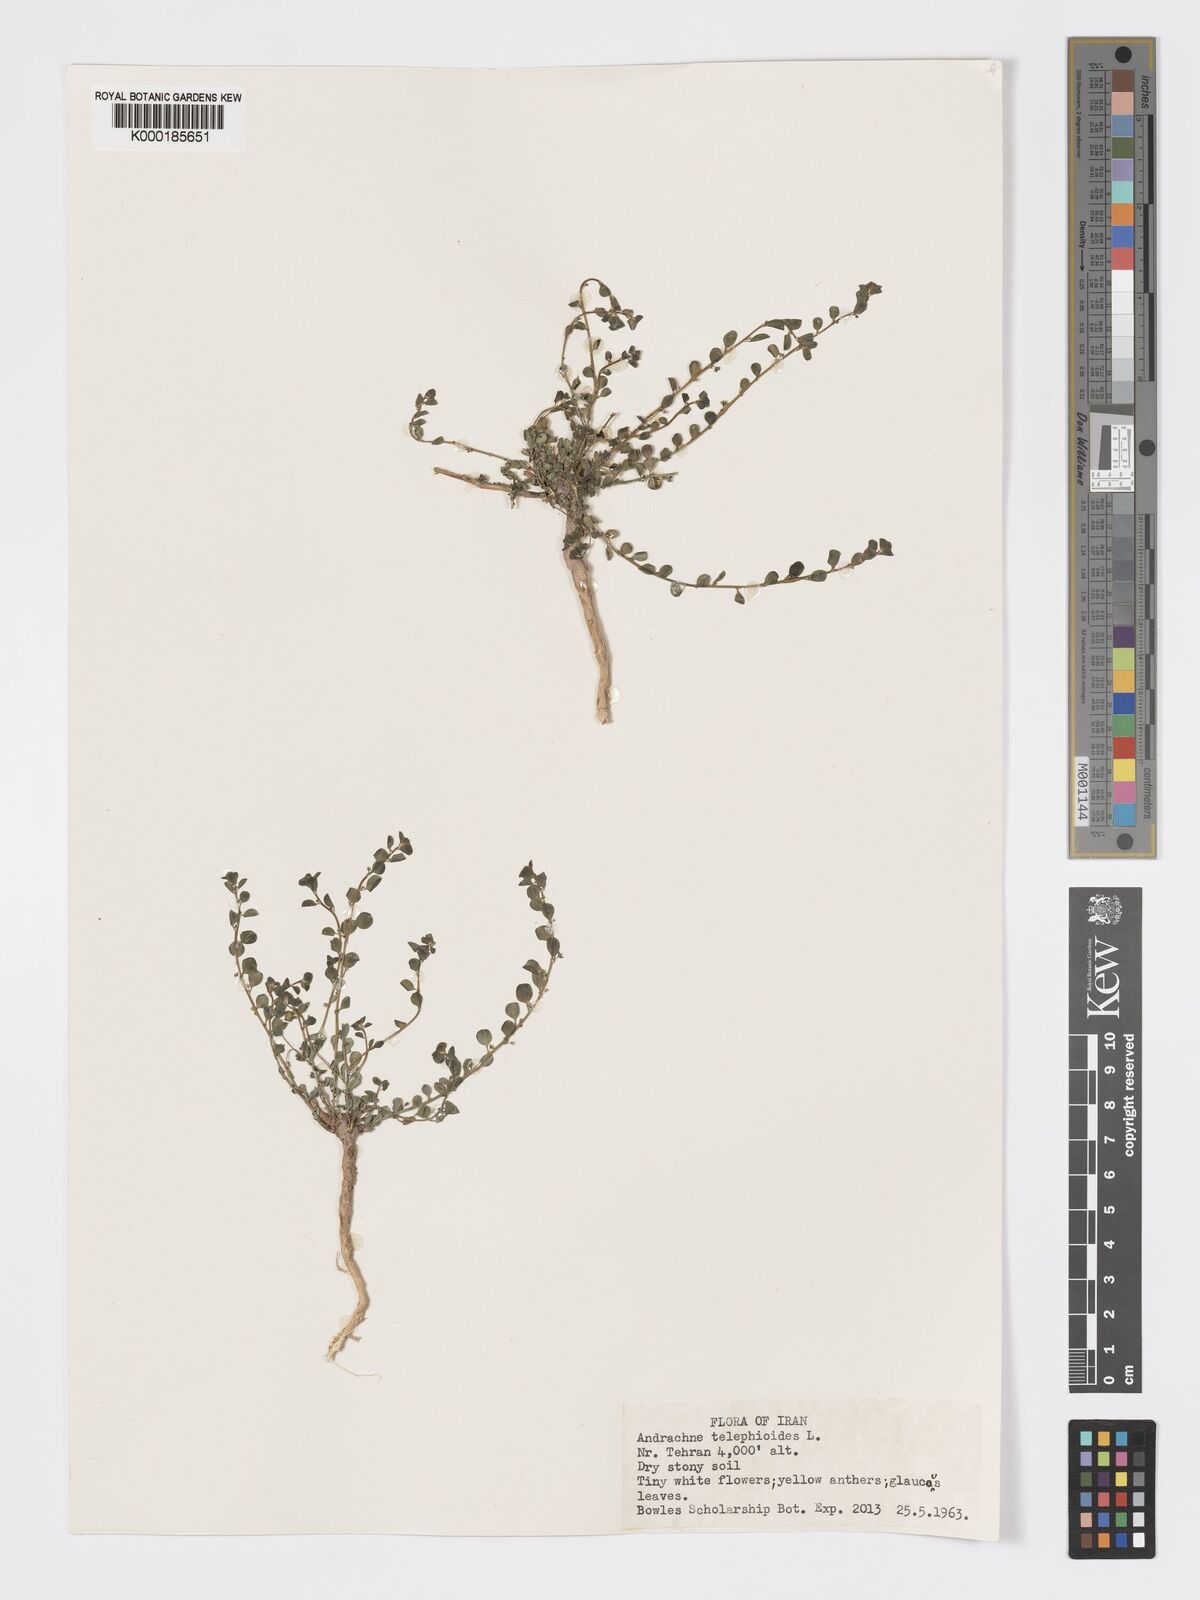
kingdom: Plantae
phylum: Tracheophyta
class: Magnoliopsida
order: Malpighiales
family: Phyllanthaceae
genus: Andrachne
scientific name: Andrachne telephioides
